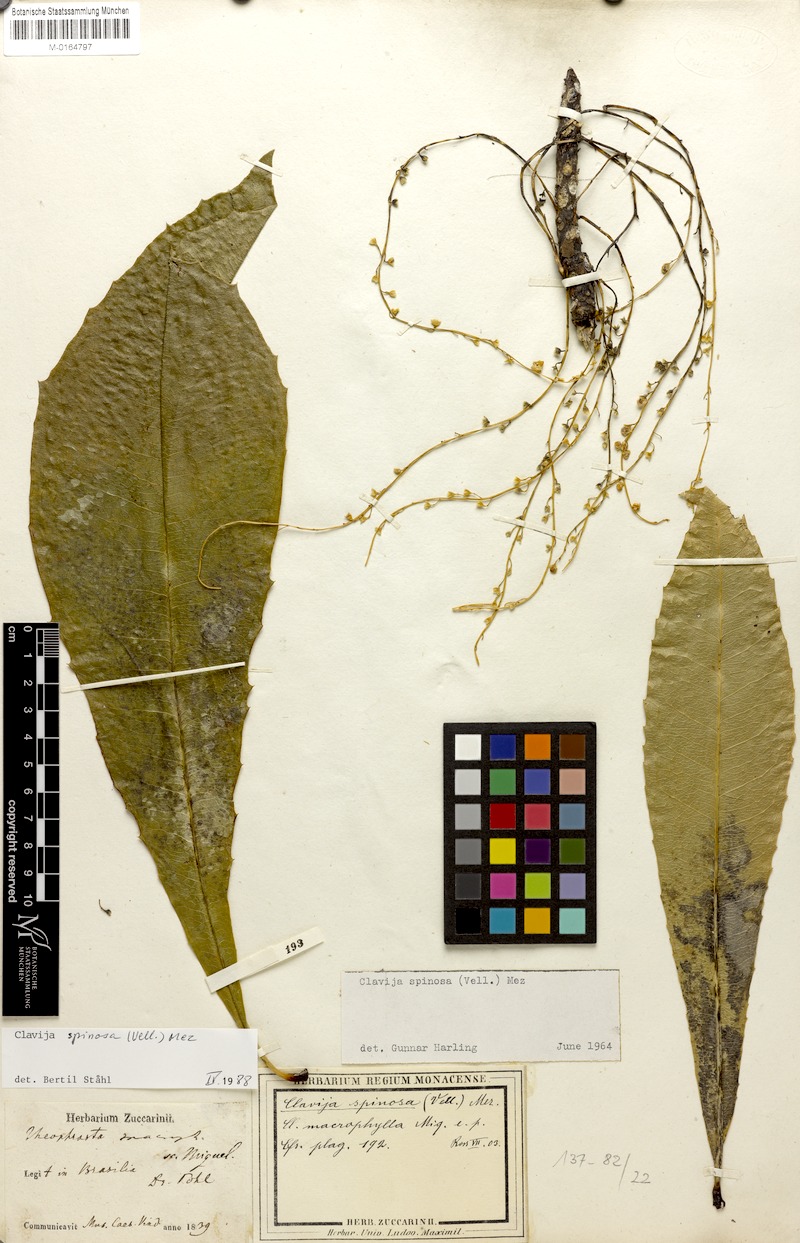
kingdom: Plantae
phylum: Tracheophyta
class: Magnoliopsida
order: Ericales
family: Primulaceae
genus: Clavija
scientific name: Clavija spinosa
